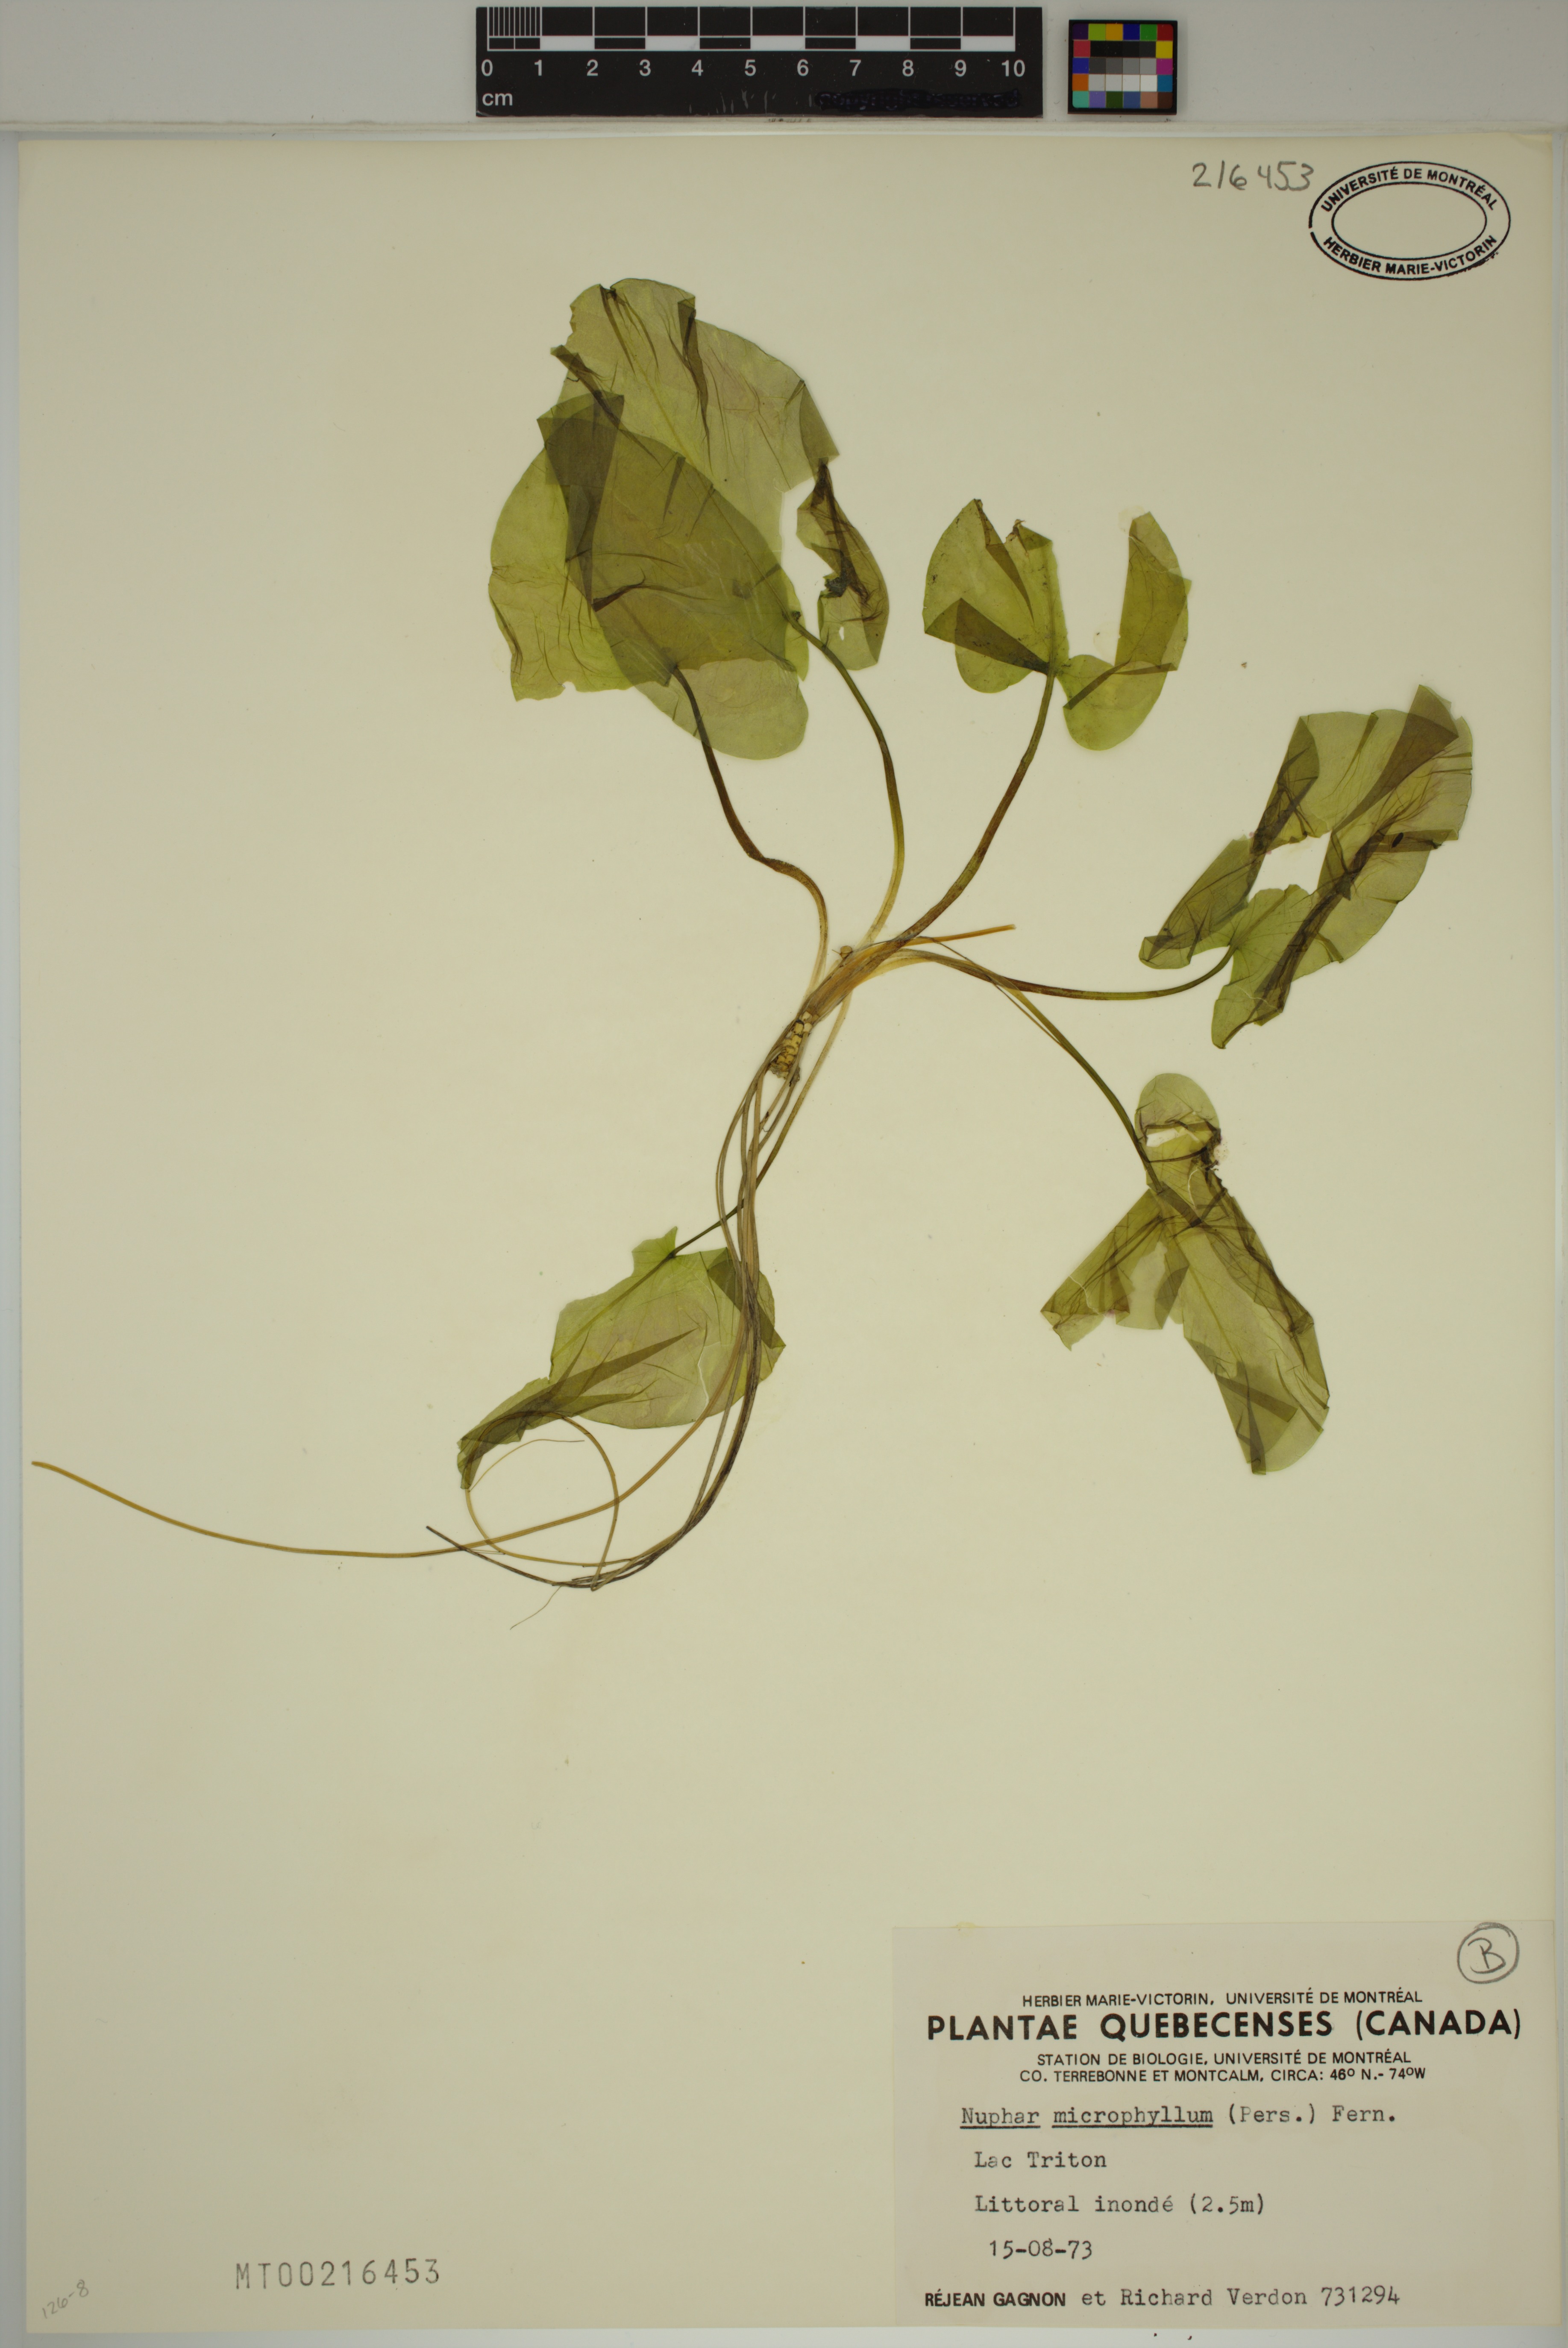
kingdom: Plantae
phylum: Tracheophyta
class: Magnoliopsida
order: Nymphaeales
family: Nymphaeaceae
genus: Nuphar
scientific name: Nuphar microphylla
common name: Small pond-lily
